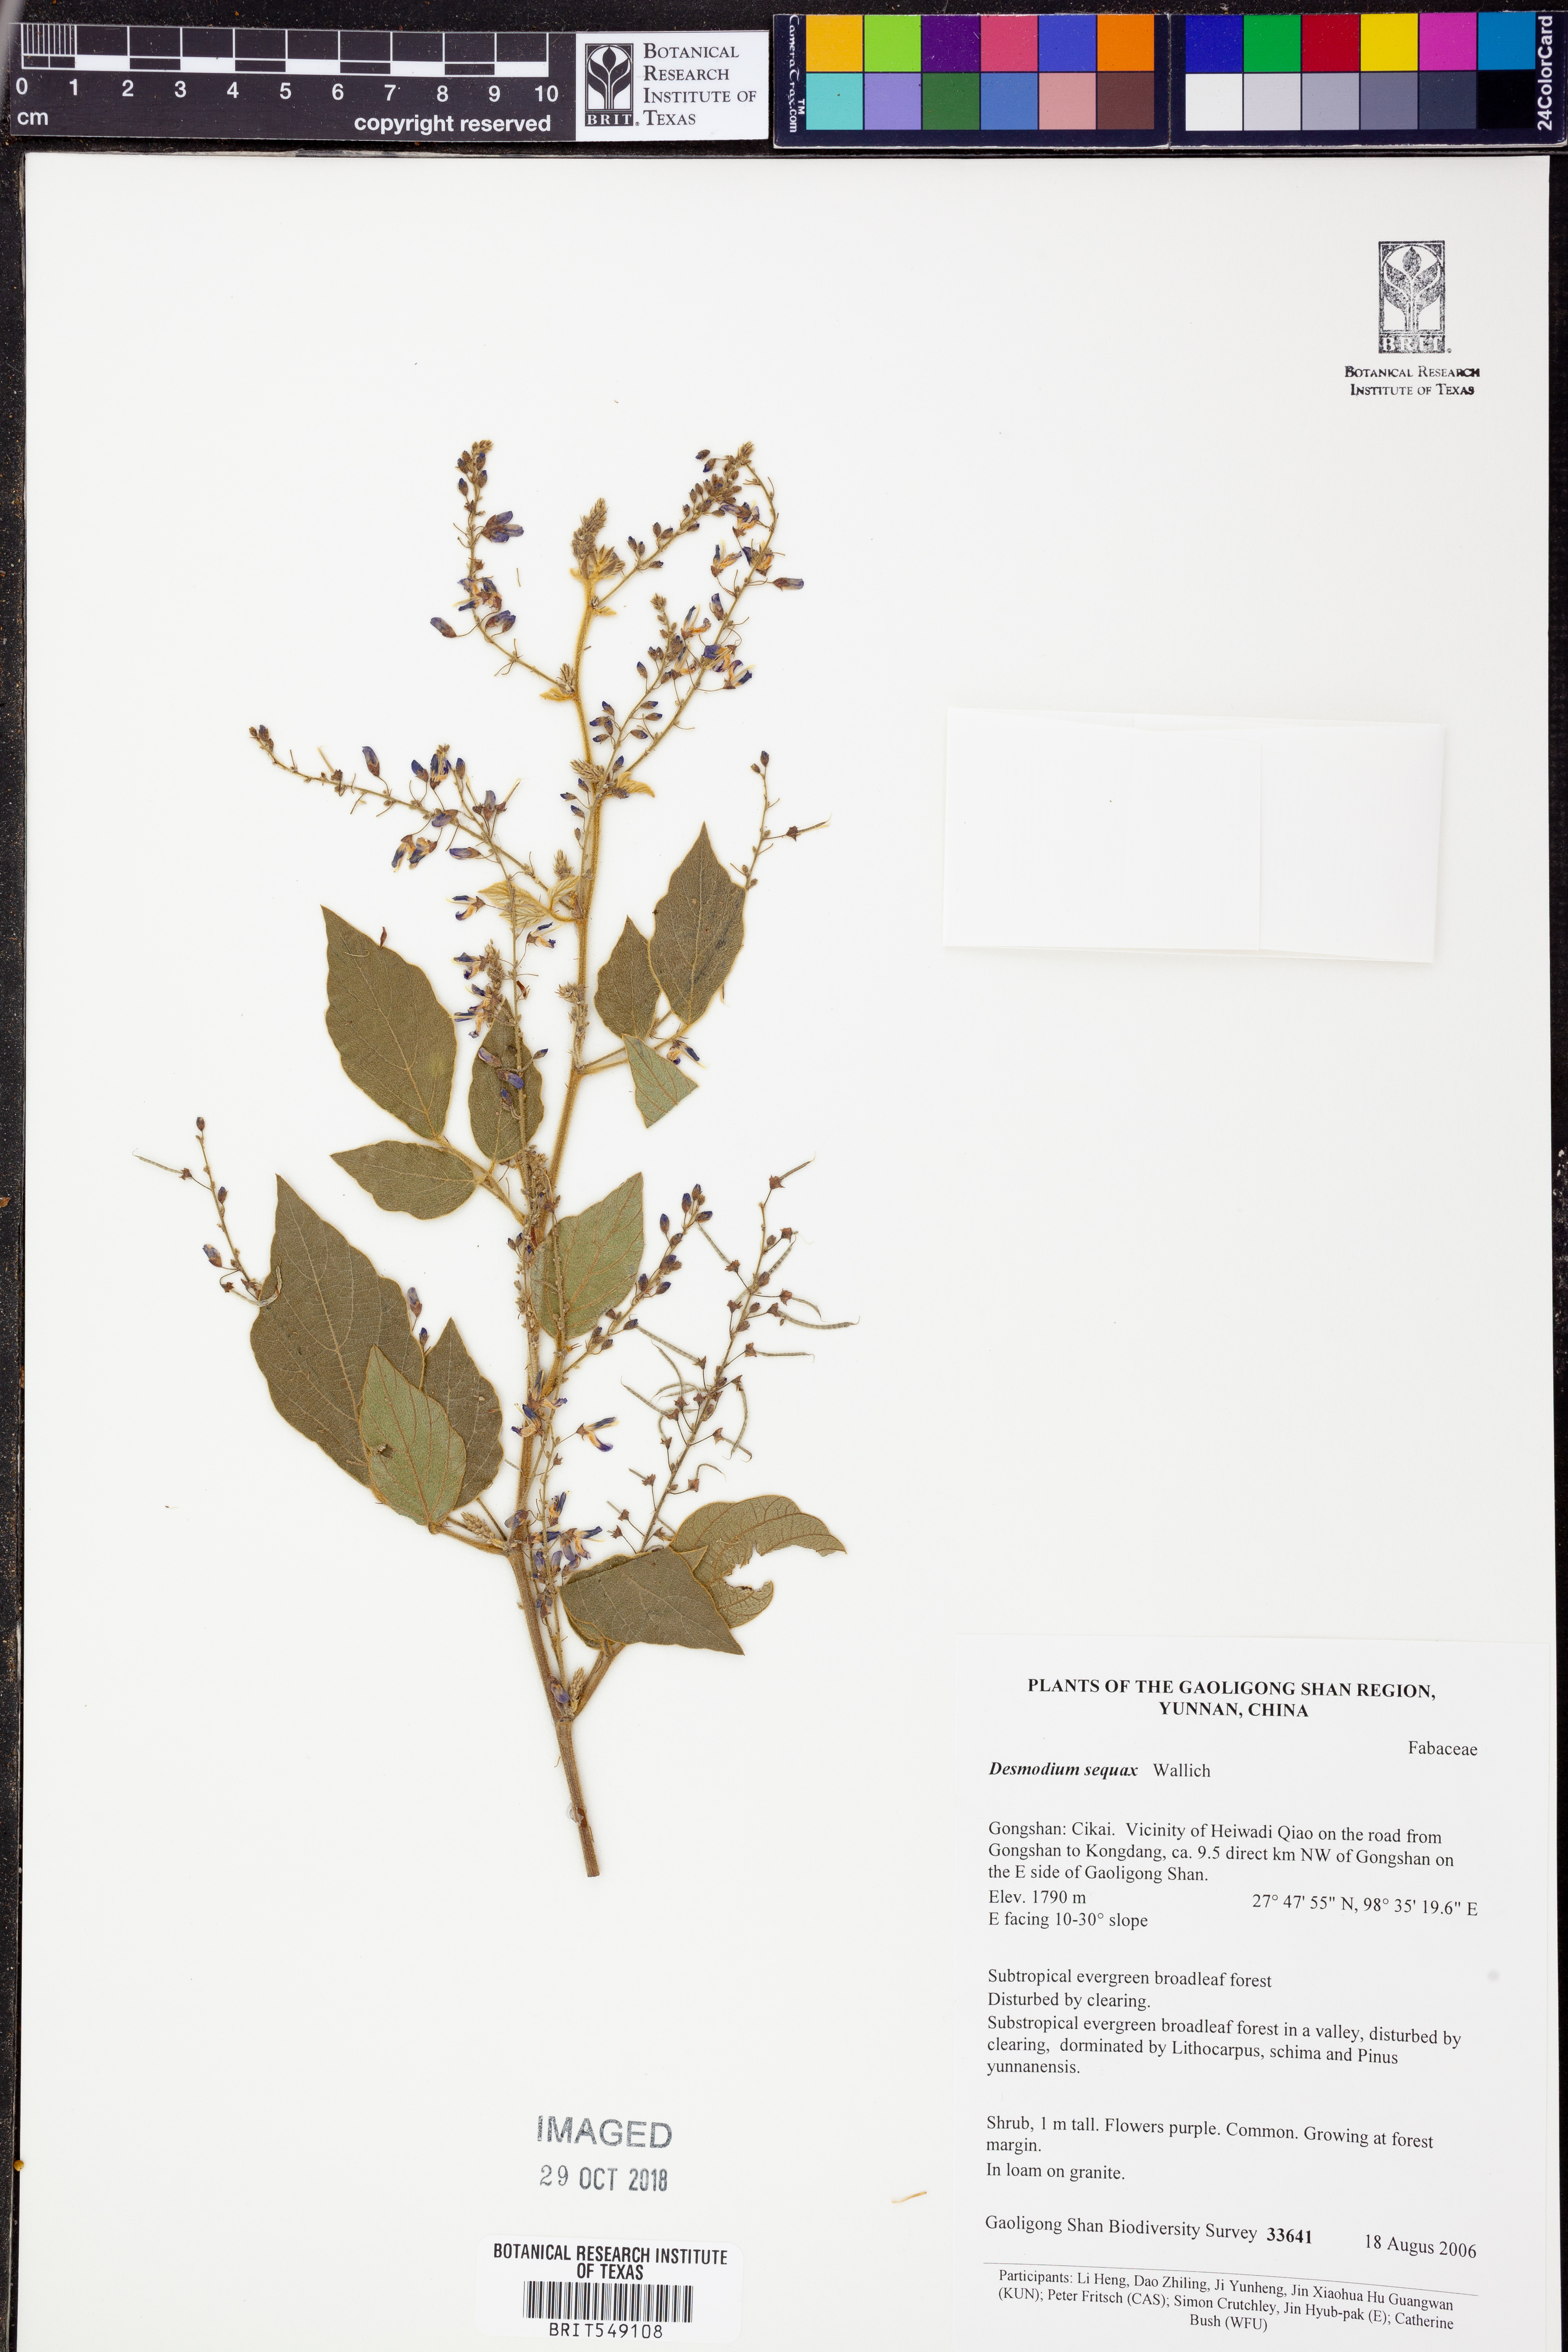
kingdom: Plantae
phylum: Tracheophyta
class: Magnoliopsida
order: Fabales
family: Fabaceae
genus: Puhuaea
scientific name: Puhuaea sequax
